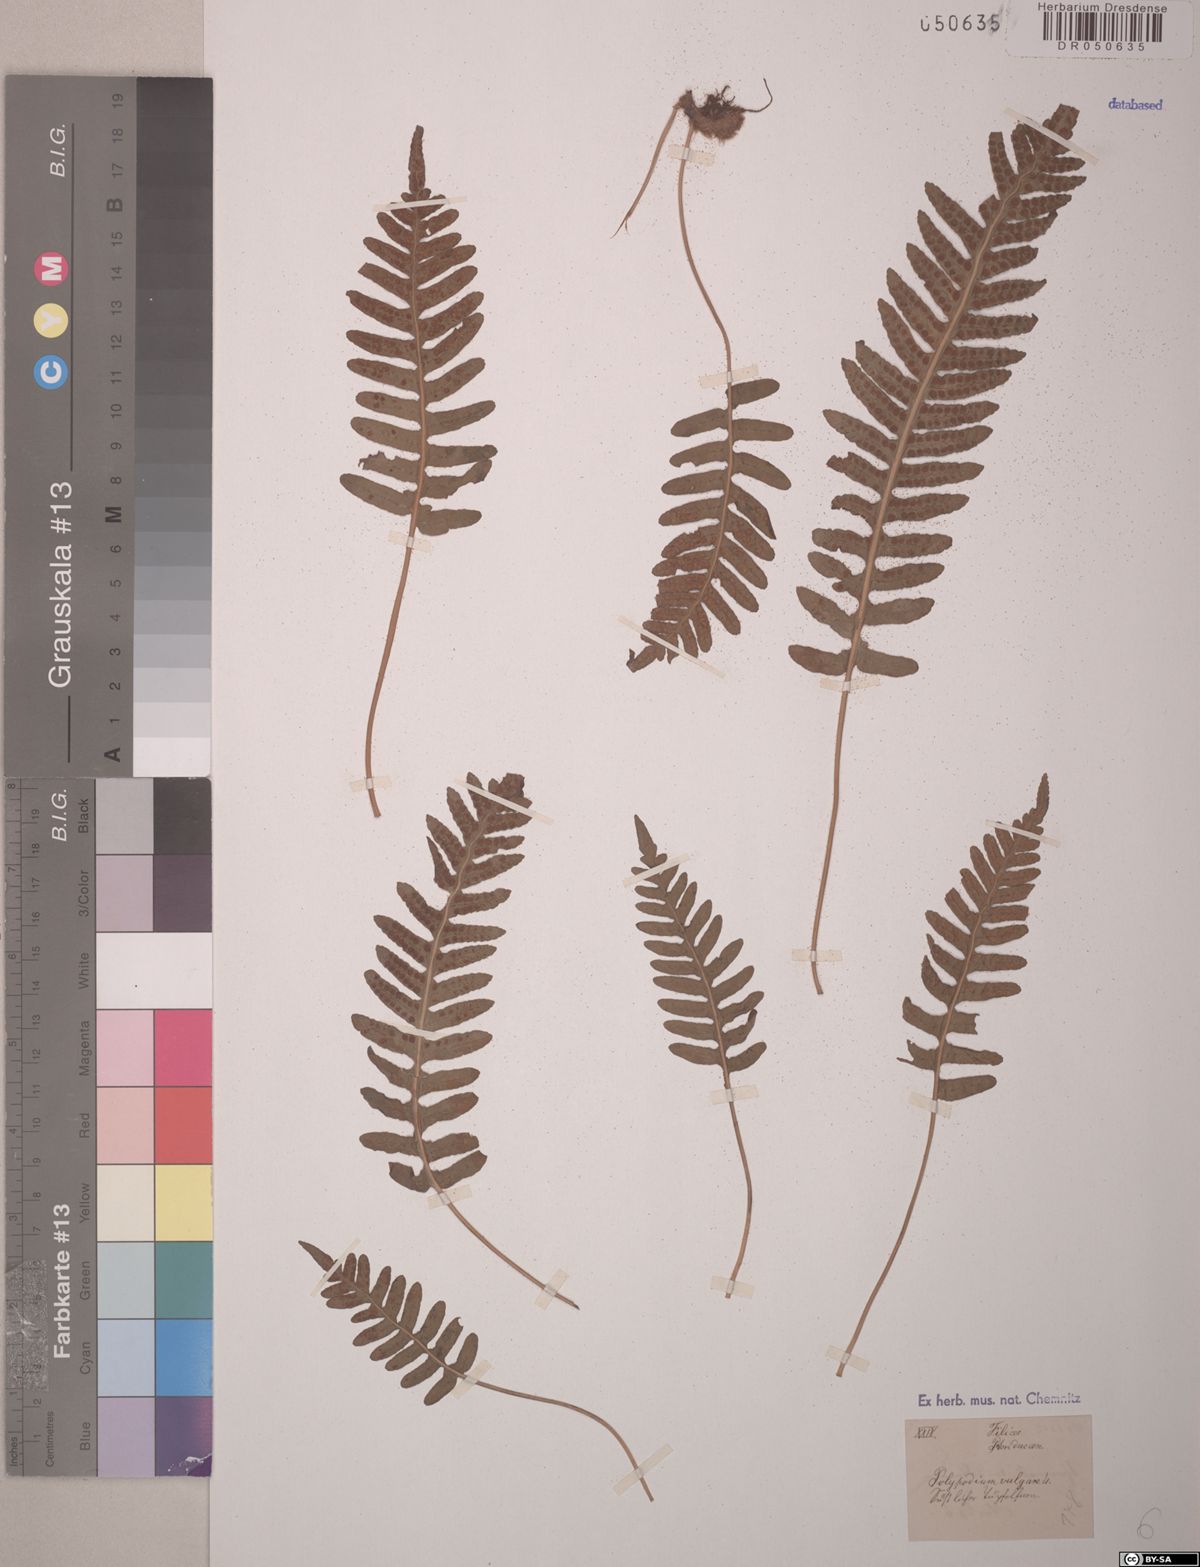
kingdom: Plantae
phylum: Tracheophyta
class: Polypodiopsida
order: Polypodiales
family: Polypodiaceae
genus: Polypodium
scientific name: Polypodium vulgare
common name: Common polypody
